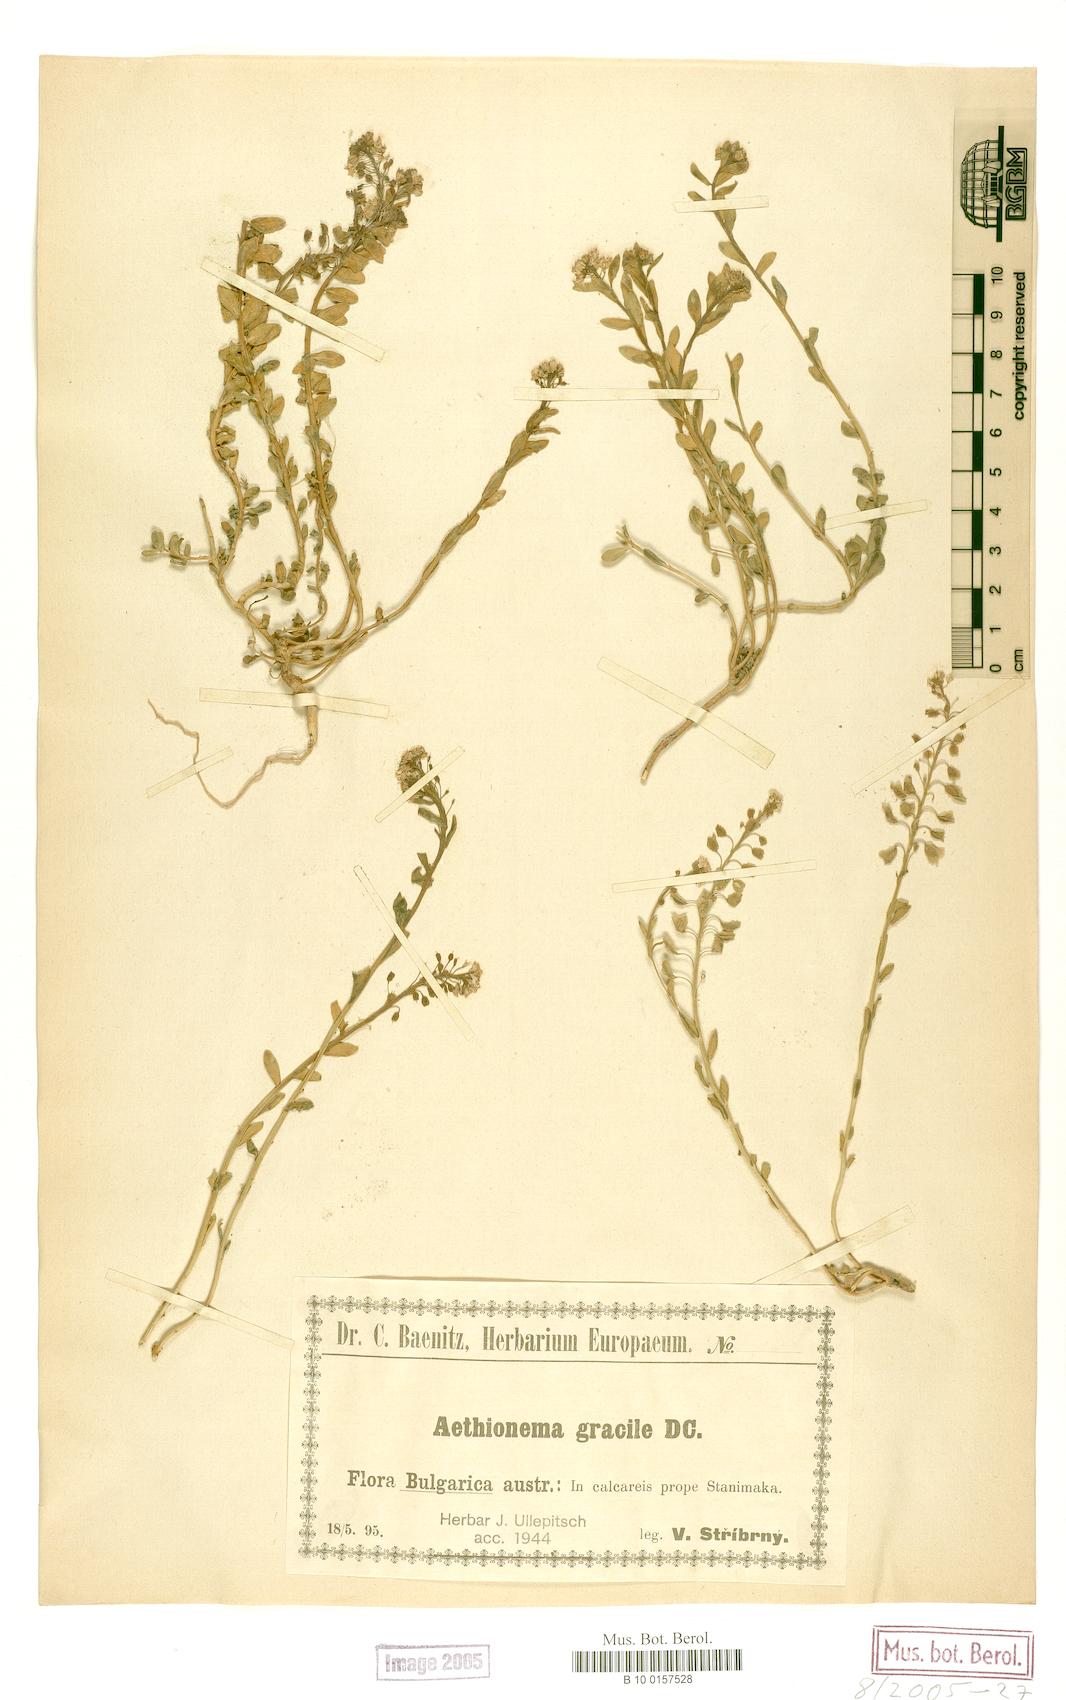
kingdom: Plantae
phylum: Tracheophyta
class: Magnoliopsida
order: Brassicales
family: Brassicaceae
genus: Aethionema
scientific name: Aethionema saxatile
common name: Burnt candytuft
